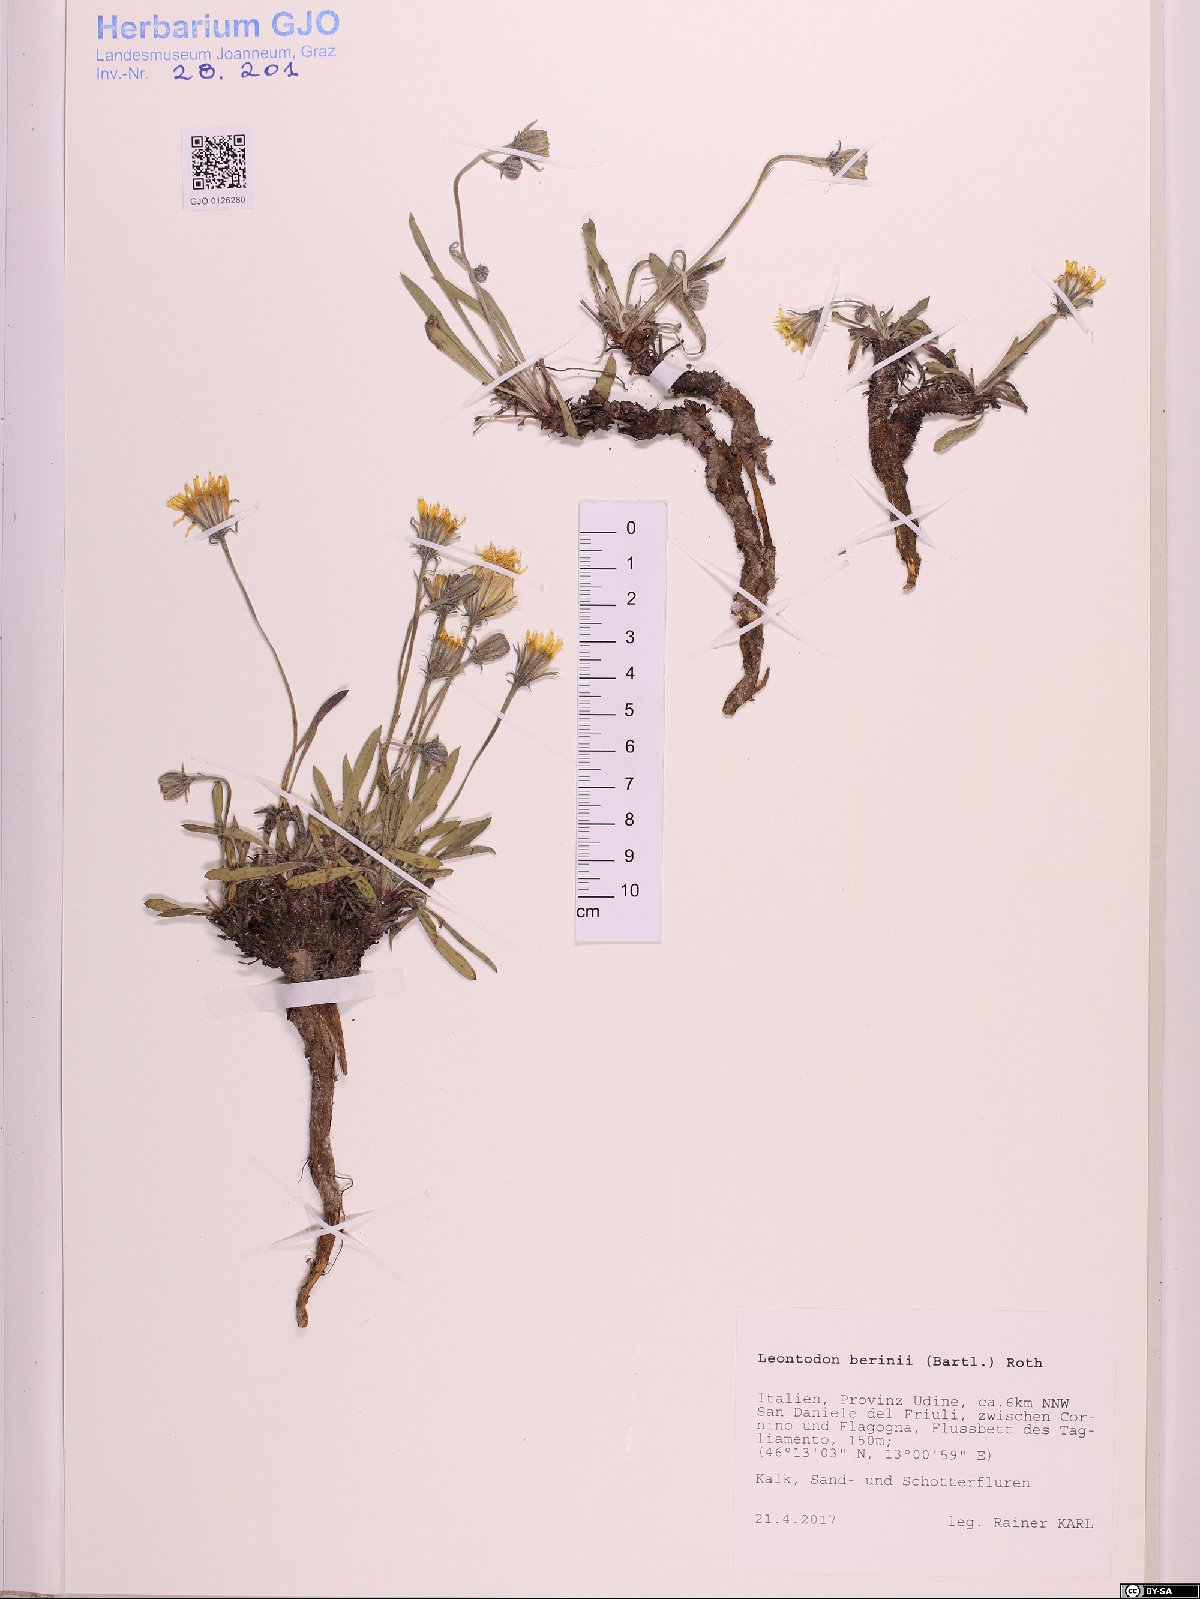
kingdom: Plantae
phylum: Tracheophyta
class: Magnoliopsida
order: Asterales
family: Asteraceae
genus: Leontodon
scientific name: Leontodon berinii
